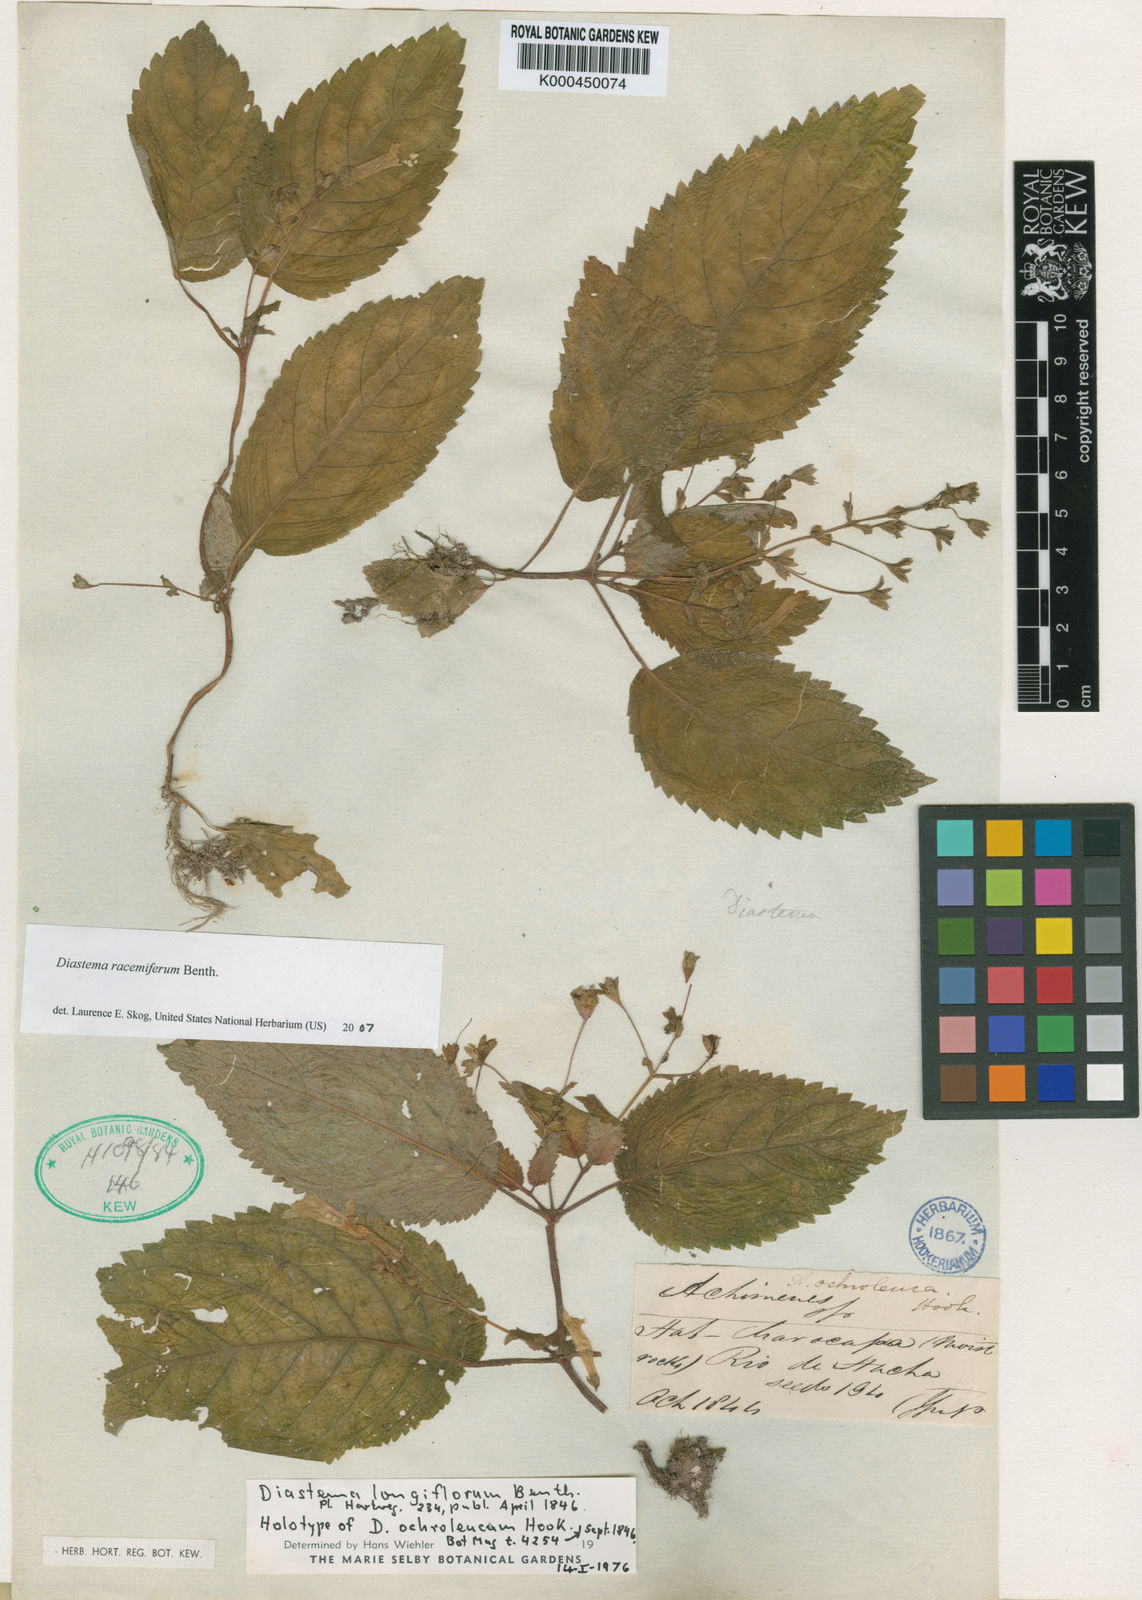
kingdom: Plantae
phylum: Tracheophyta
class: Magnoliopsida
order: Lamiales
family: Gesneriaceae
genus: Diastema
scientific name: Diastema racemiferum
